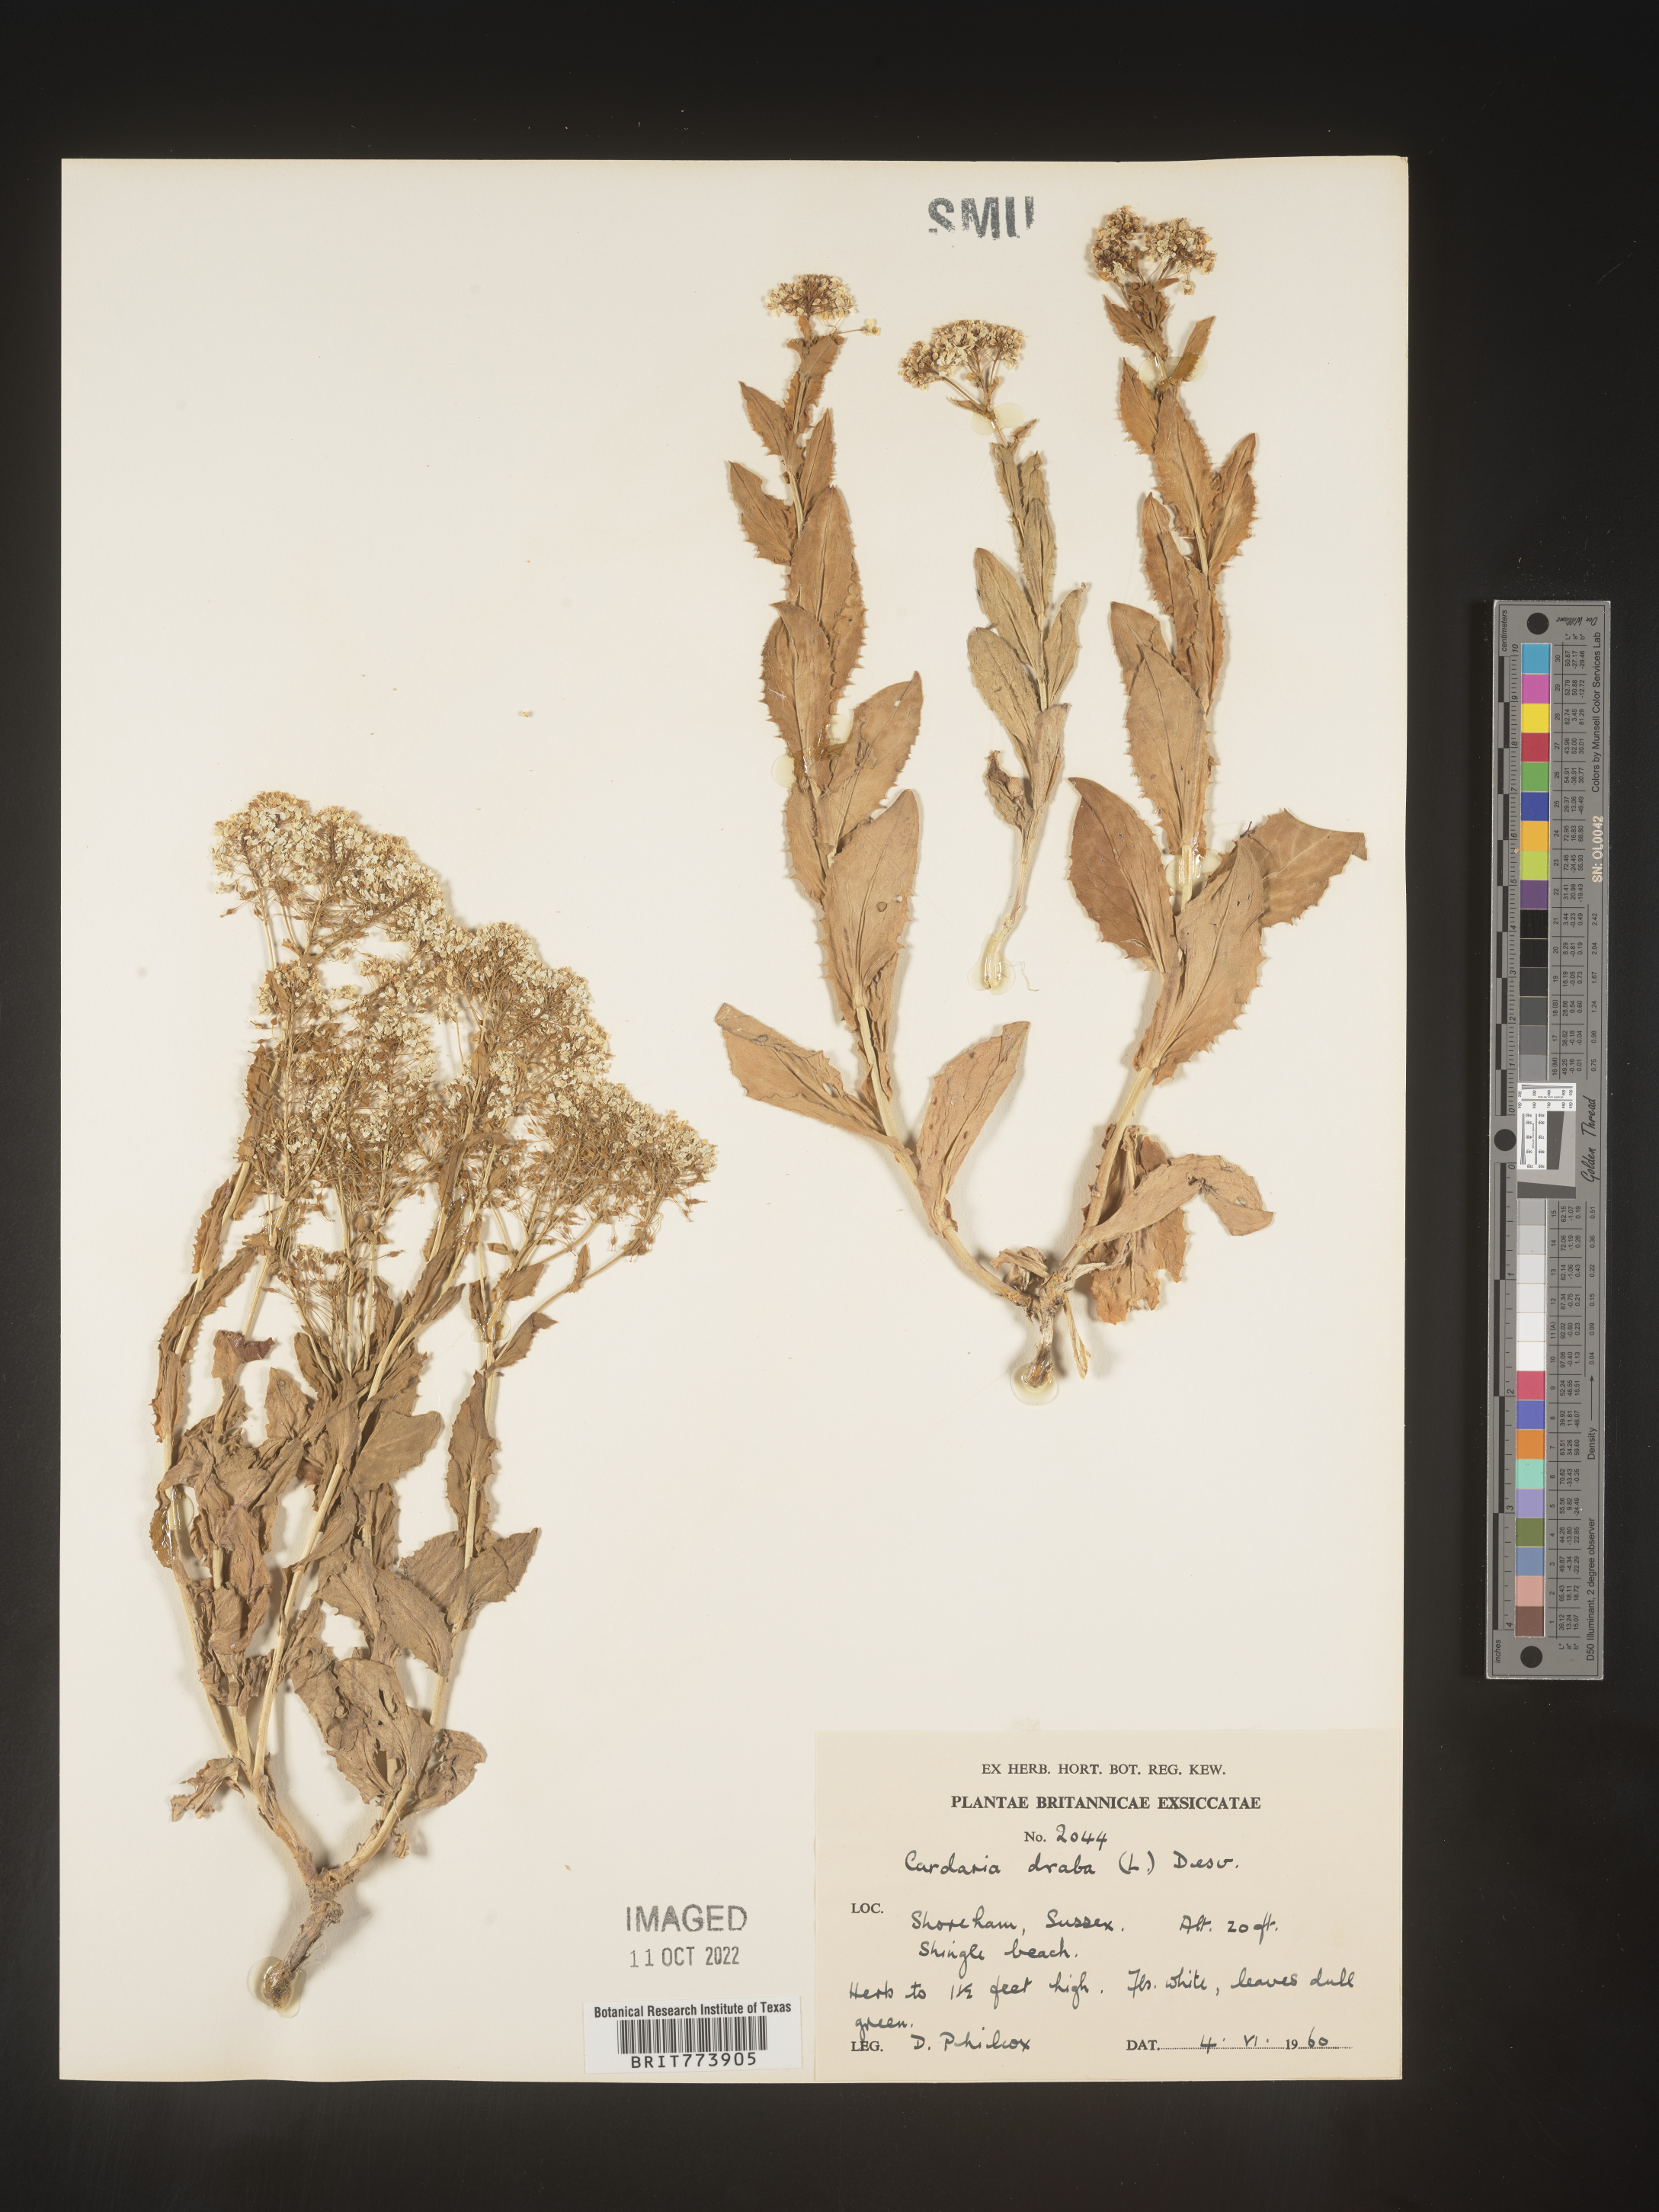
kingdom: Plantae
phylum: Tracheophyta
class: Magnoliopsida
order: Brassicales
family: Brassicaceae
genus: Lepidium
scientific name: Lepidium
